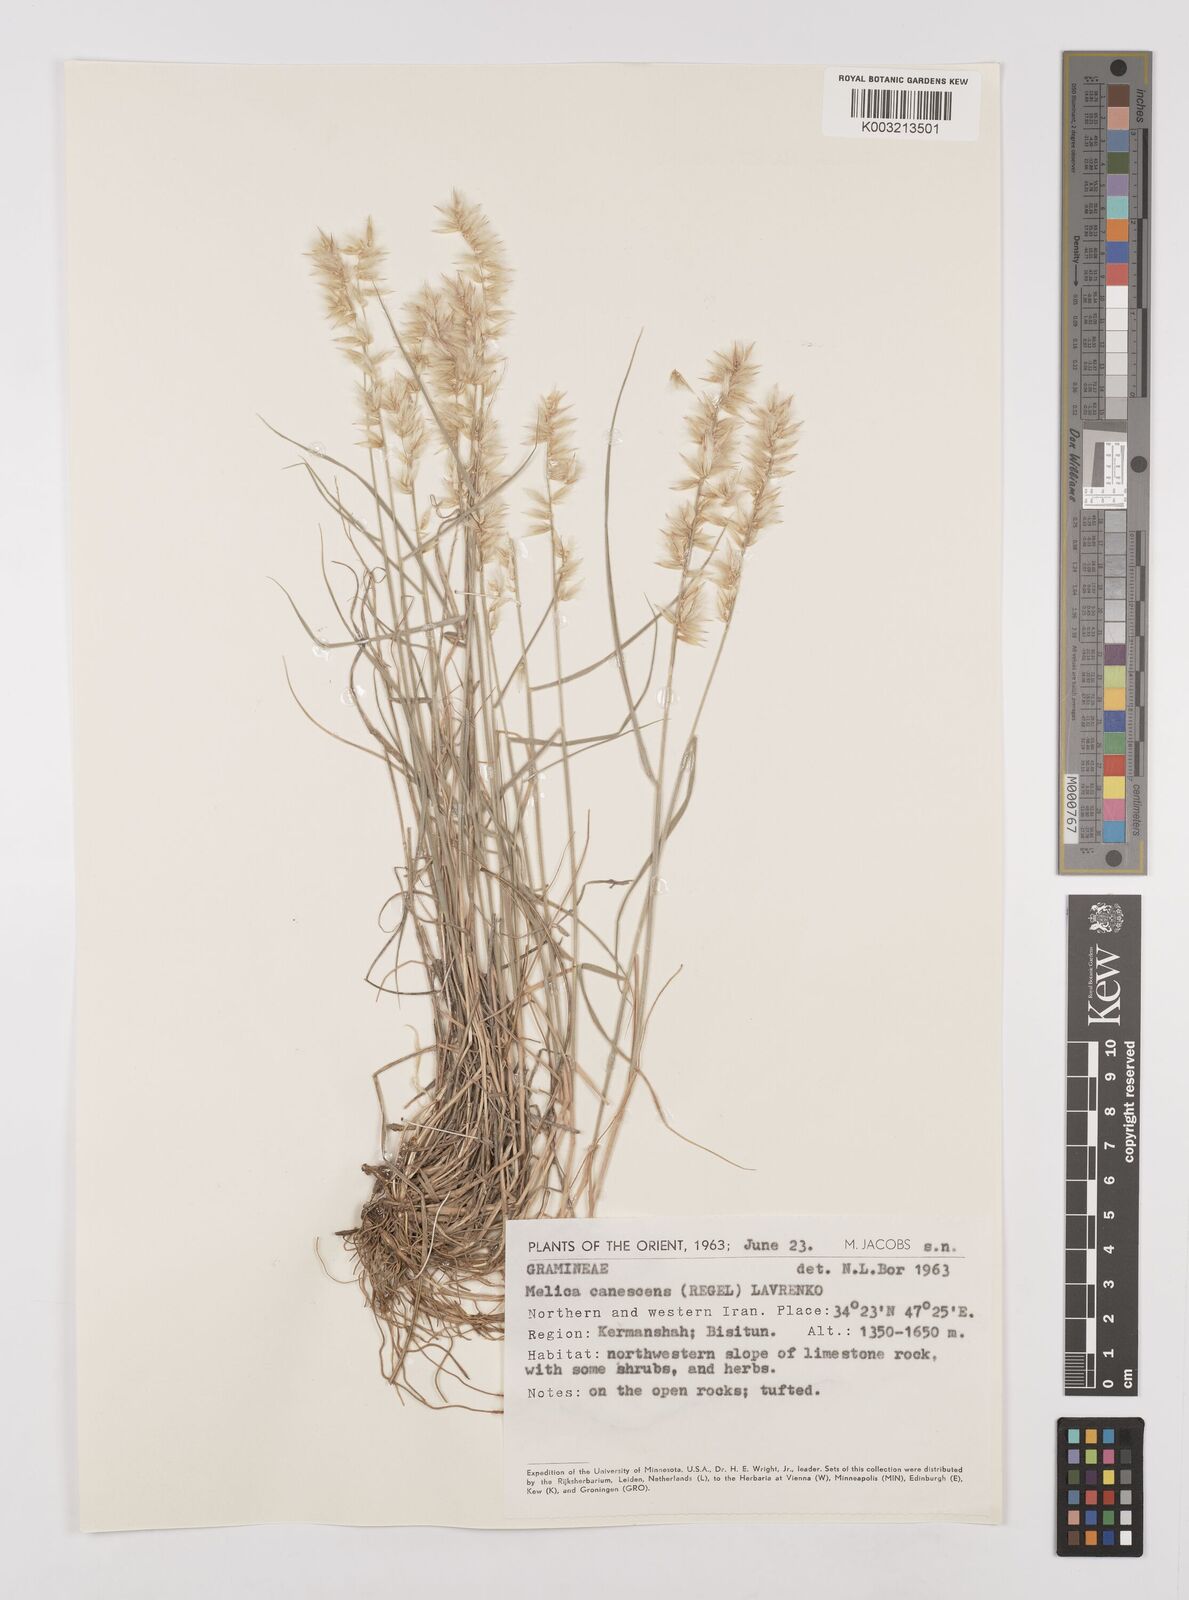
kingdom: Plantae
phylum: Tracheophyta
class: Liliopsida
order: Poales
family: Poaceae
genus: Melica
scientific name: Melica persica
